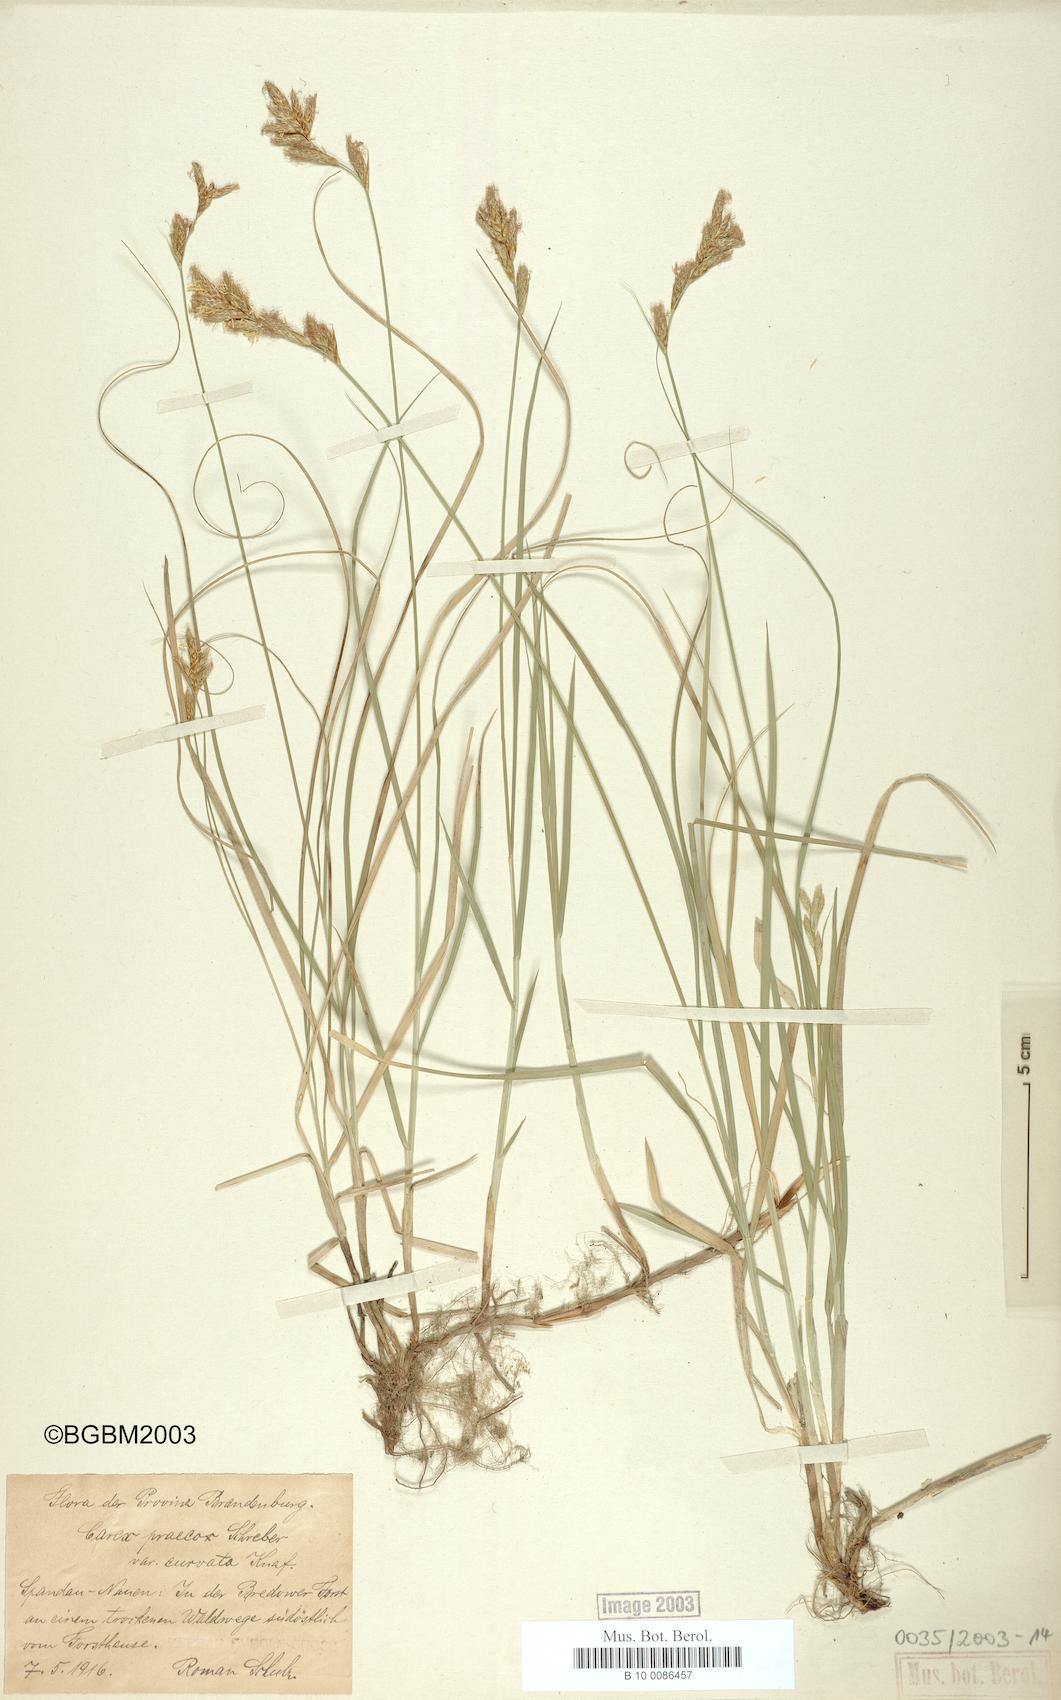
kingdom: Plantae
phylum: Tracheophyta
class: Liliopsida
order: Poales
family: Cyperaceae
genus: Carex
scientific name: Carex curvata
